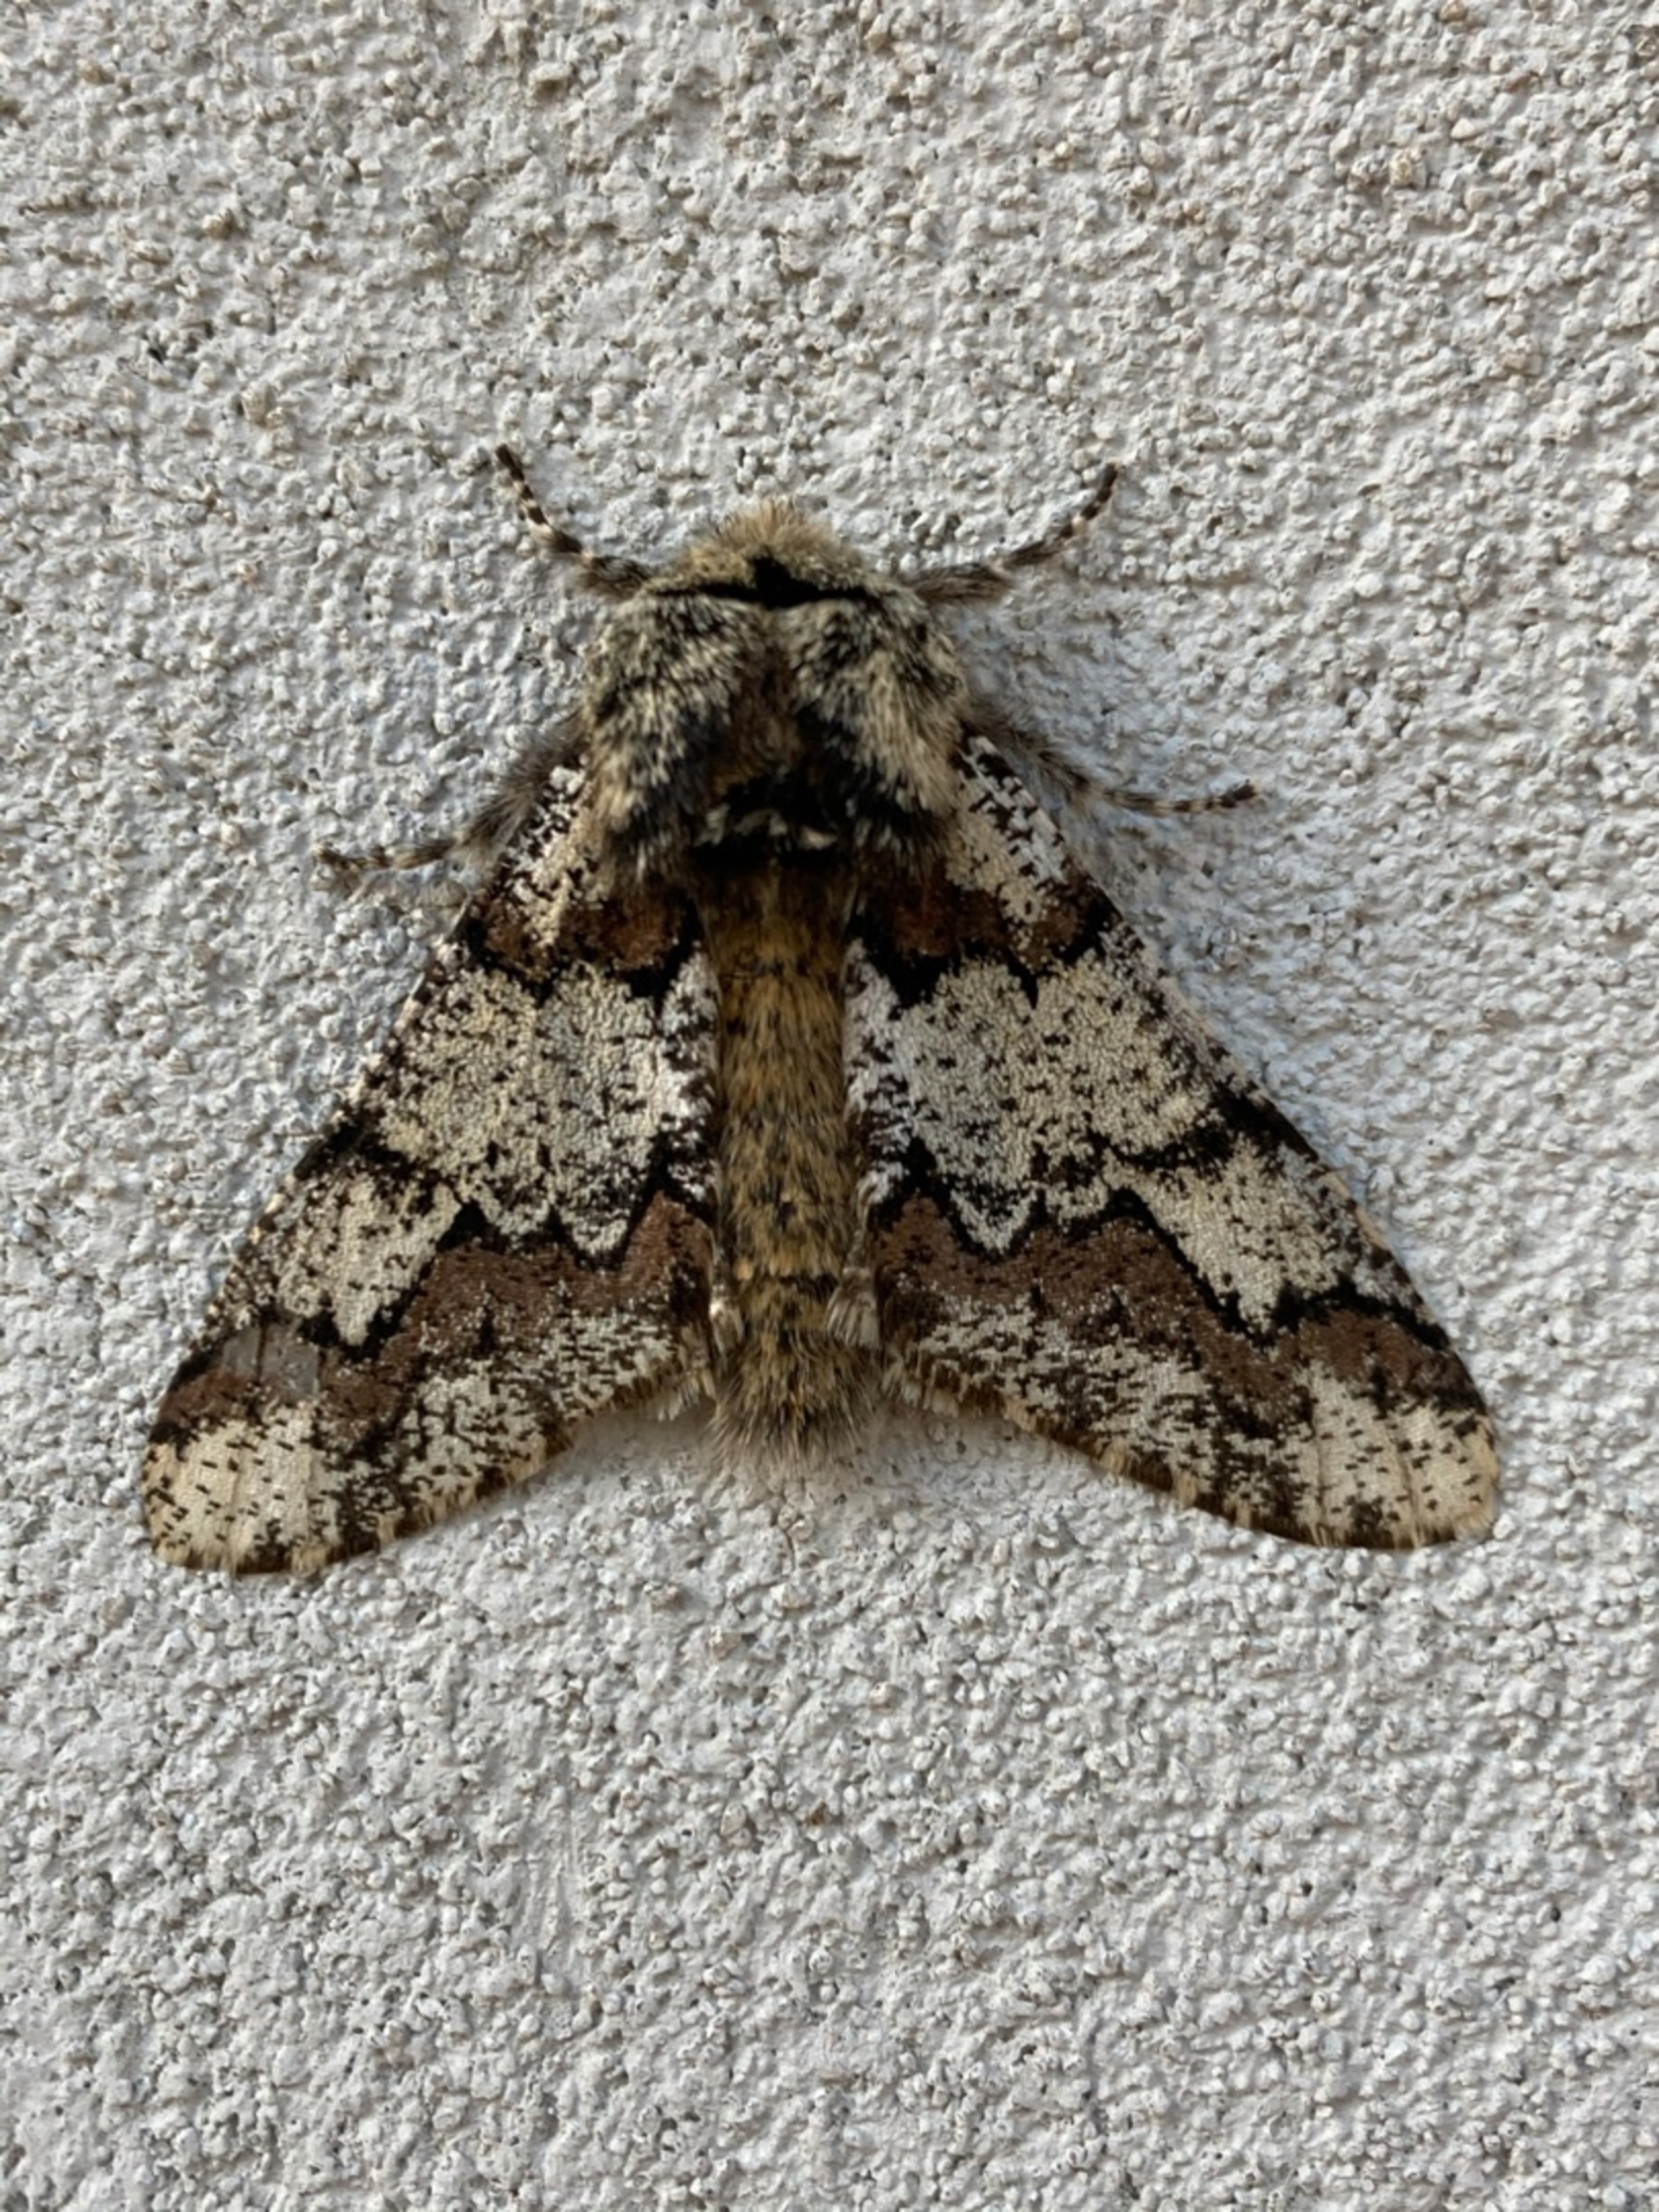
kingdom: Animalia
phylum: Arthropoda
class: Insecta
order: Lepidoptera
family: Geometridae
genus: Biston
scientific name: Biston strataria
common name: Broget vintermåler
